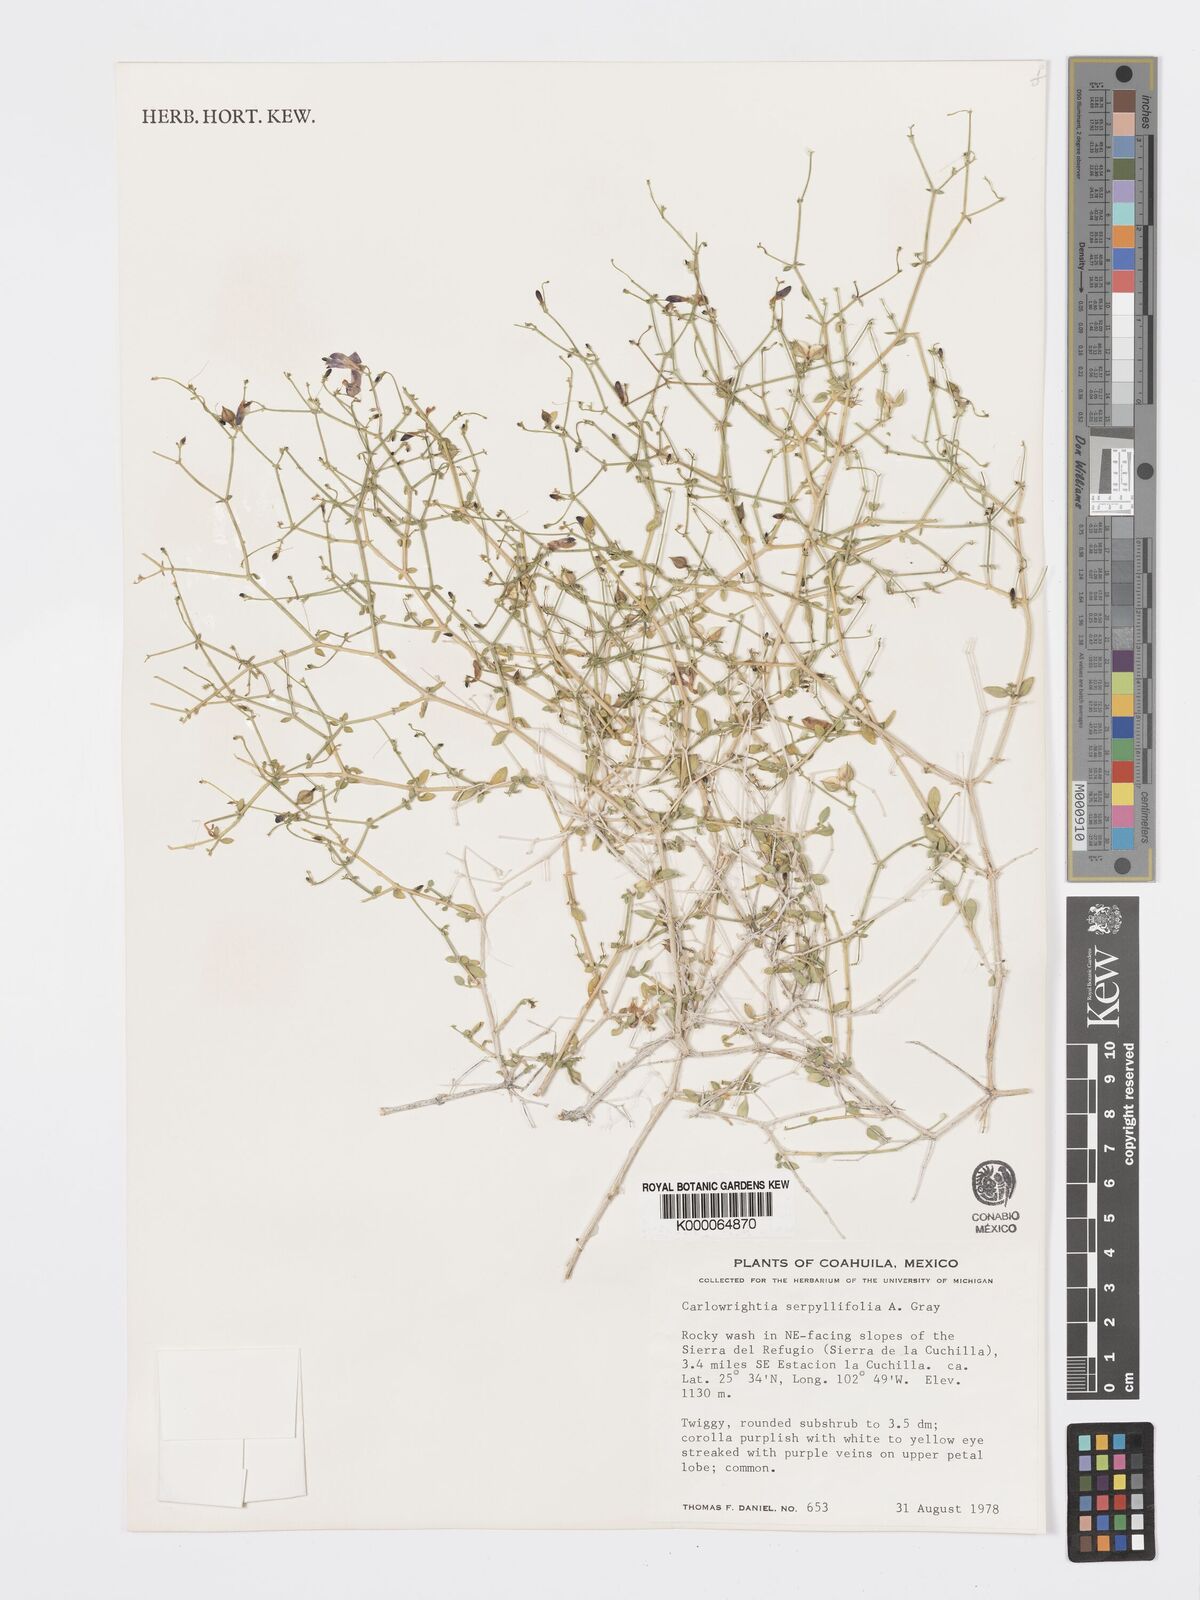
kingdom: Plantae
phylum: Tracheophyta
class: Magnoliopsida
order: Lamiales
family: Acanthaceae
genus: Carlowrightia
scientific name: Carlowrightia serpyllifolia
